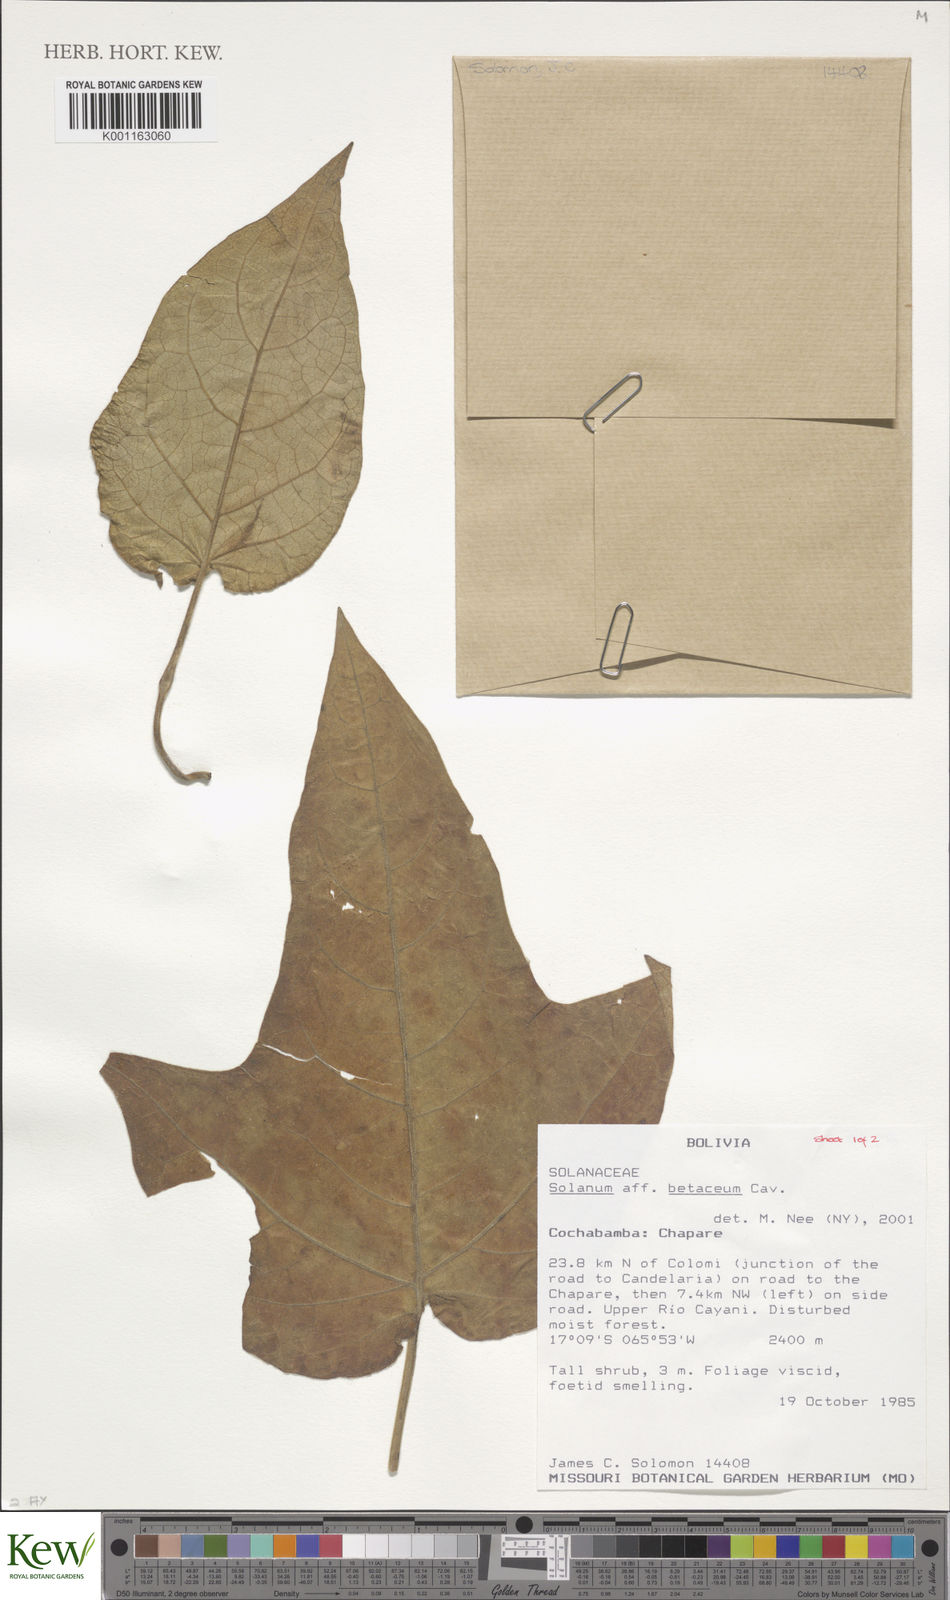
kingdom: Plantae
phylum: Tracheophyta
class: Magnoliopsida
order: Solanales
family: Solanaceae
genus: Solanum
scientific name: Solanum betaceum
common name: Tamarillo
